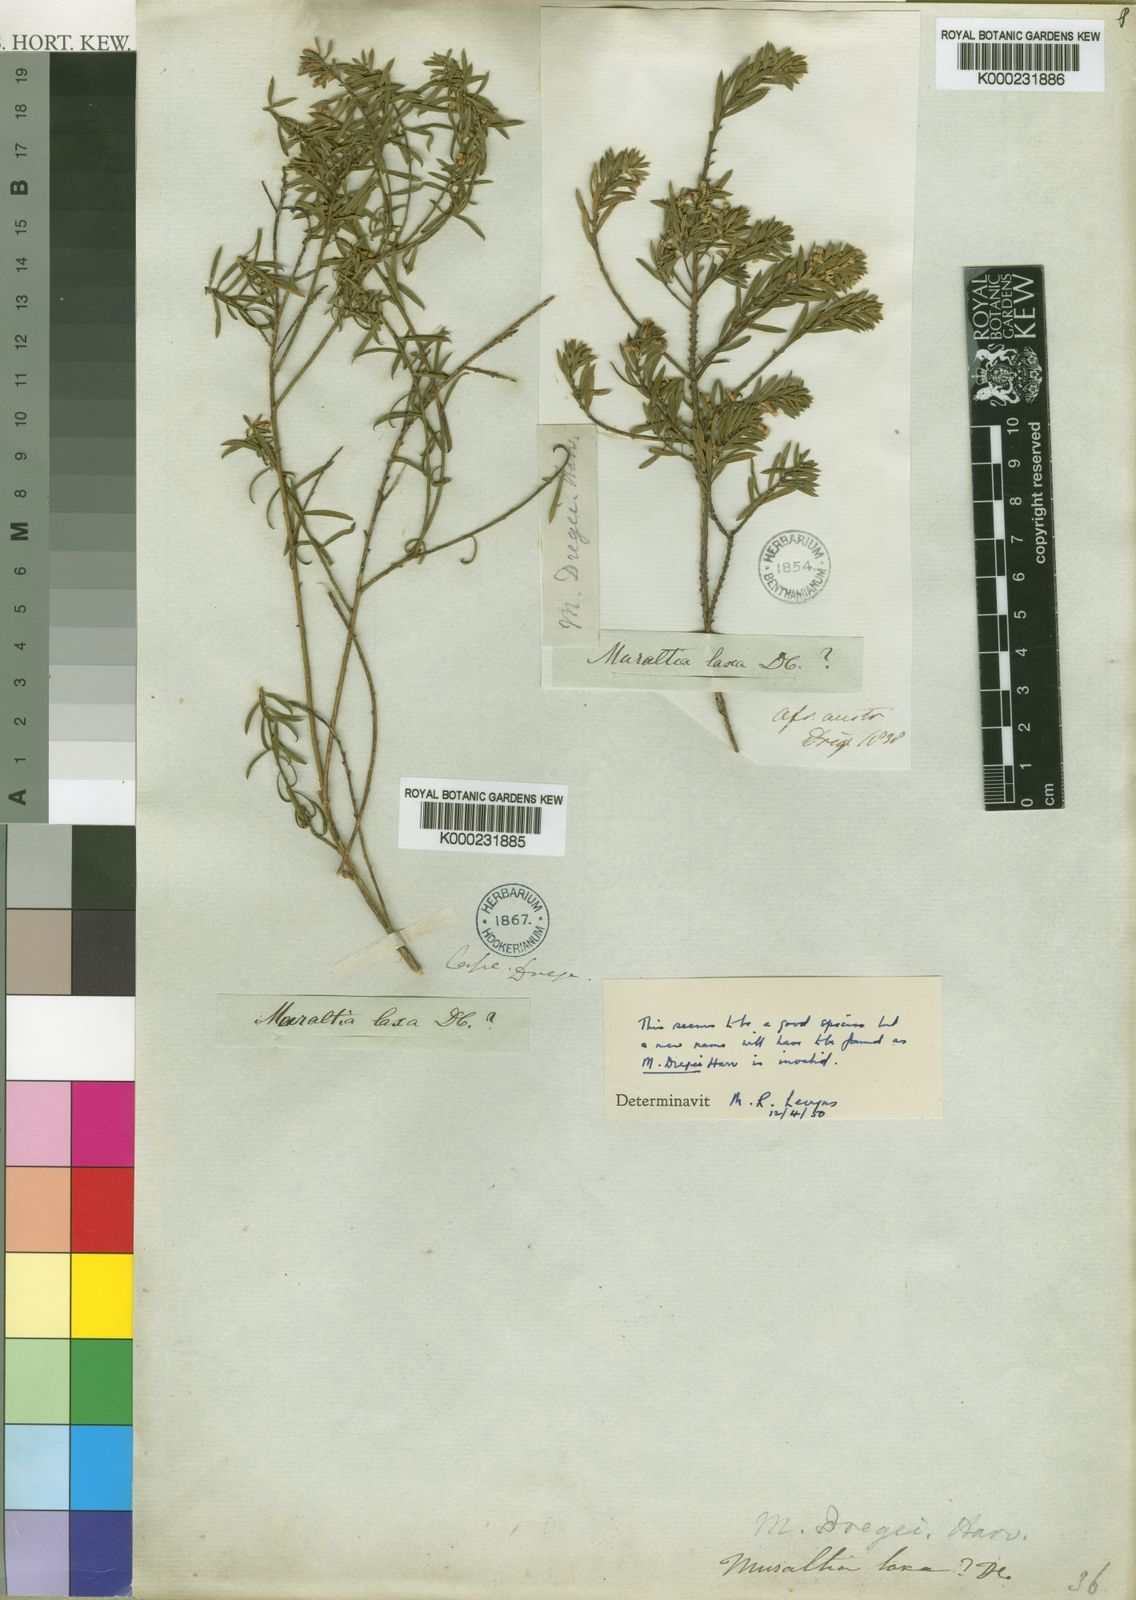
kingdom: Plantae
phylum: Tracheophyta
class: Magnoliopsida
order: Fabales
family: Polygalaceae
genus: Muraltia
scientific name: Muraltia harveyana
